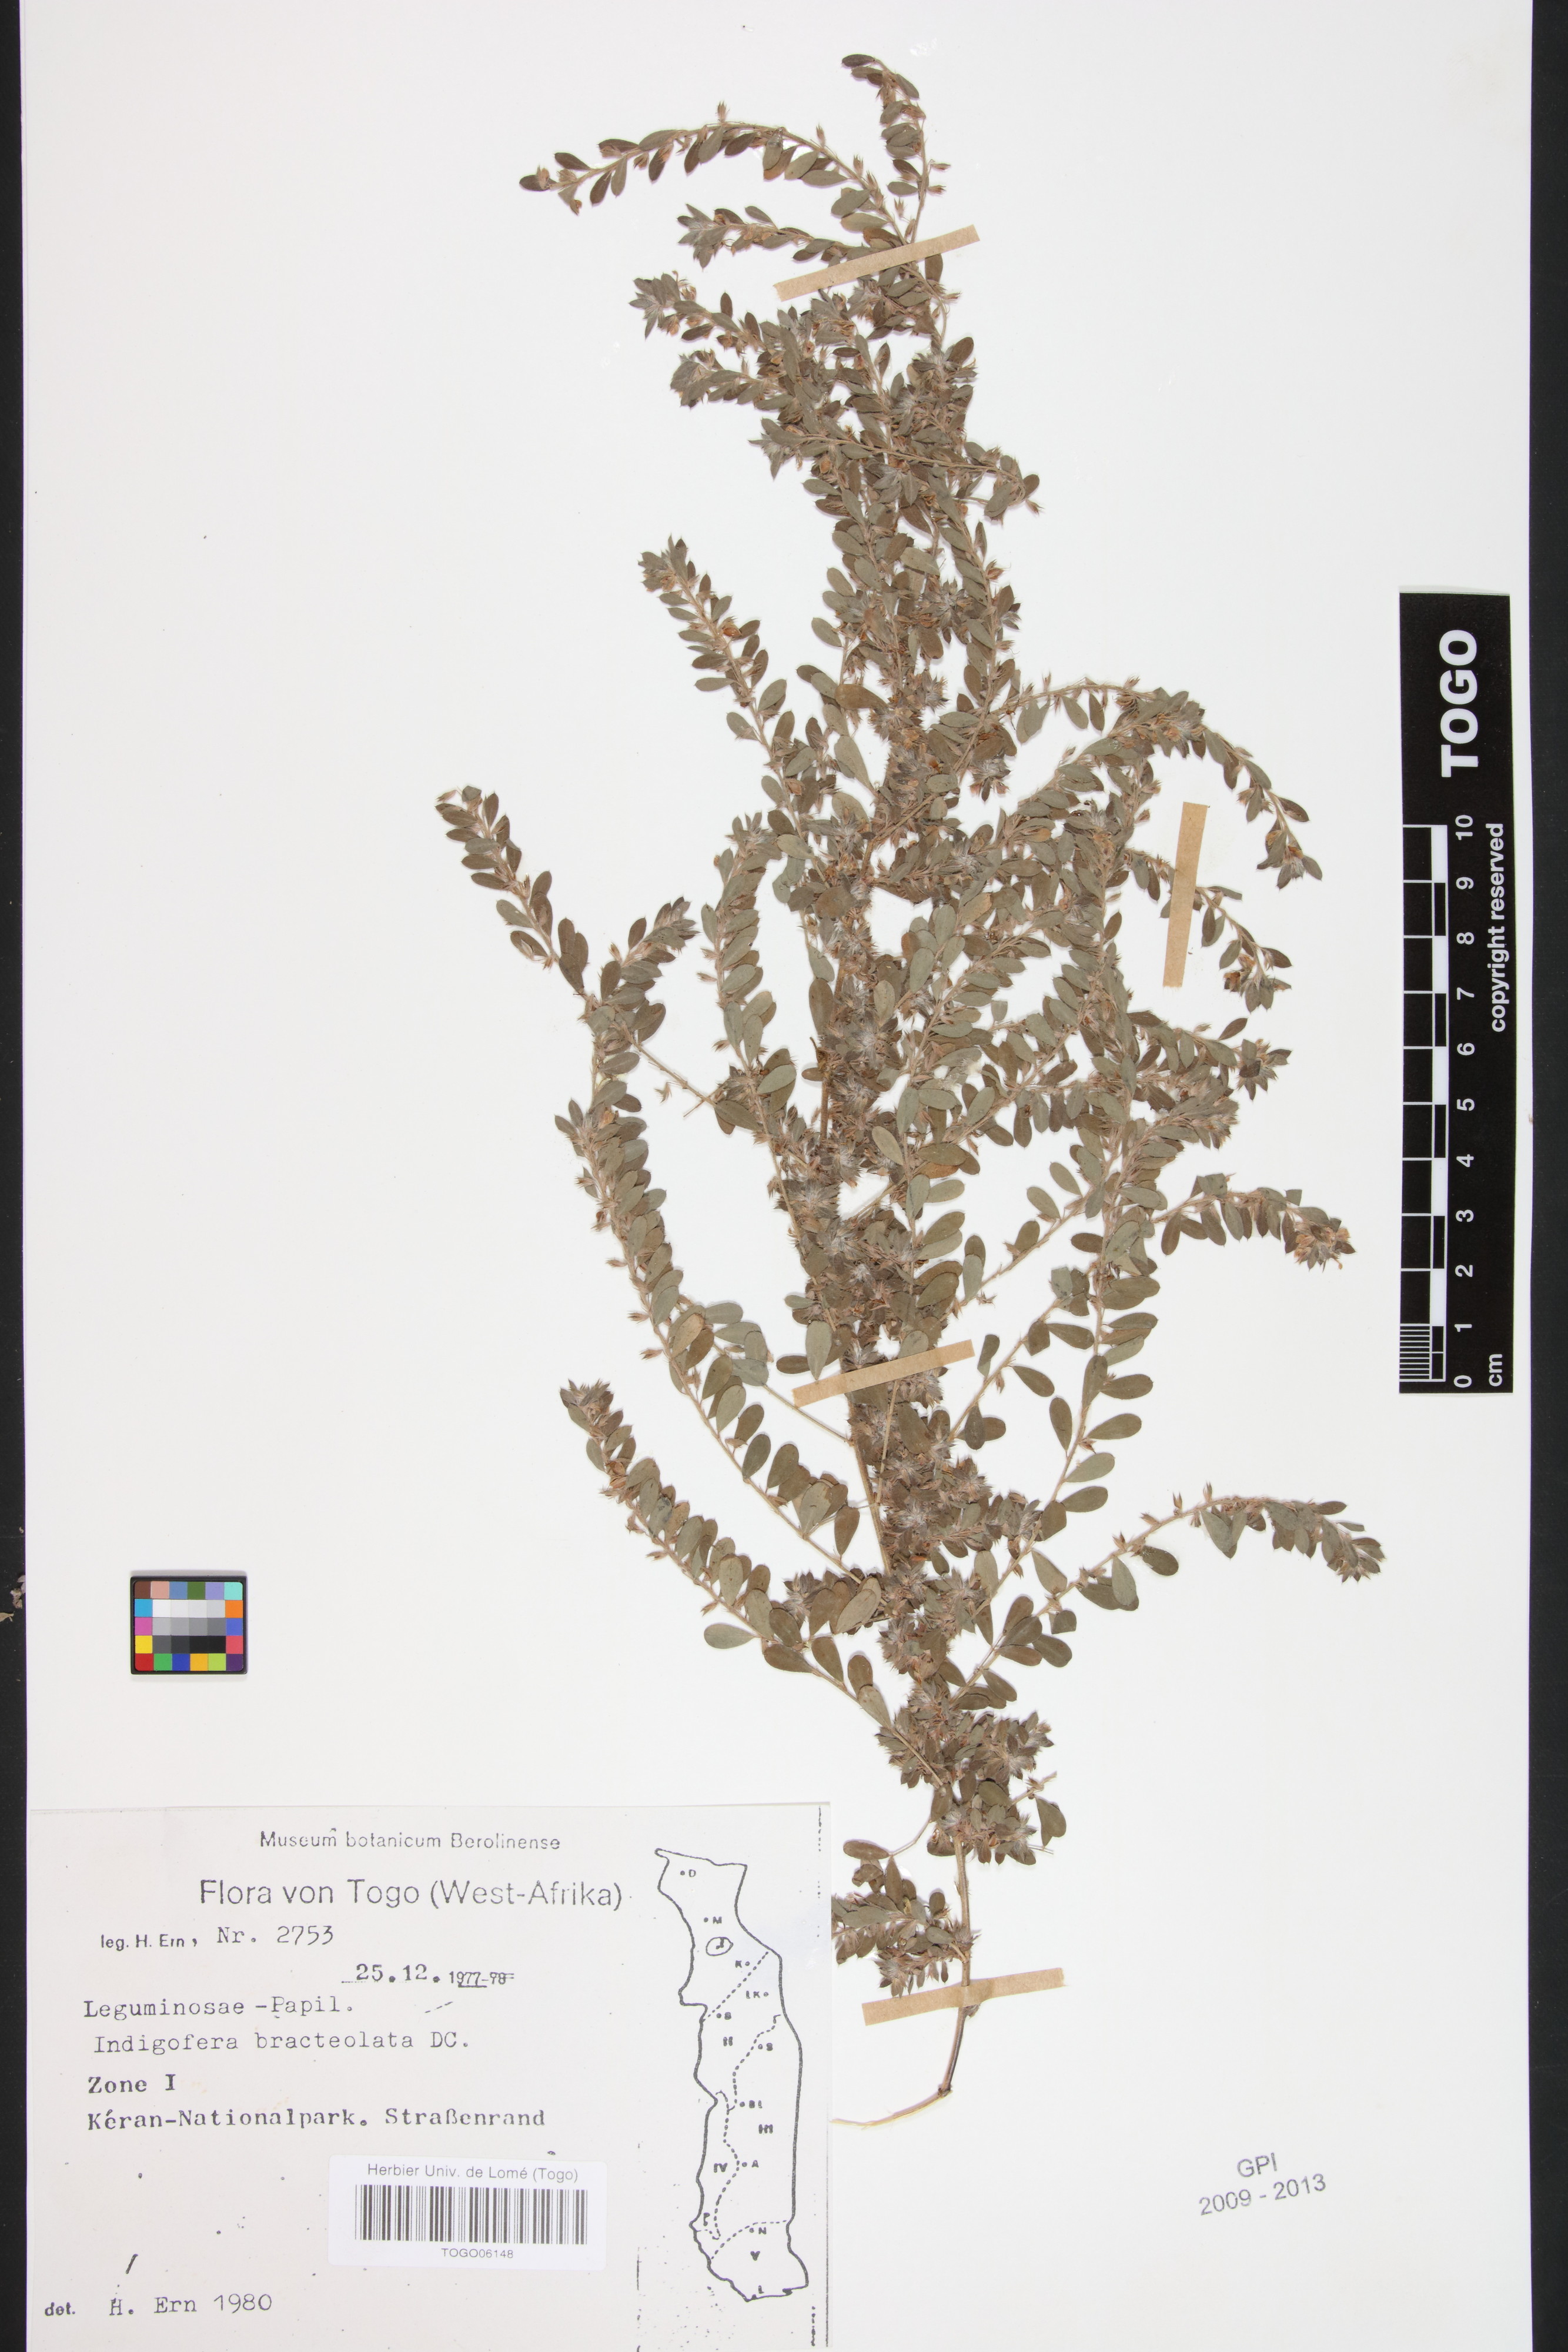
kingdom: Plantae
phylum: Tracheophyta
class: Magnoliopsida
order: Fabales
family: Fabaceae
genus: Indigofera
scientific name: Indigofera bracteolata
